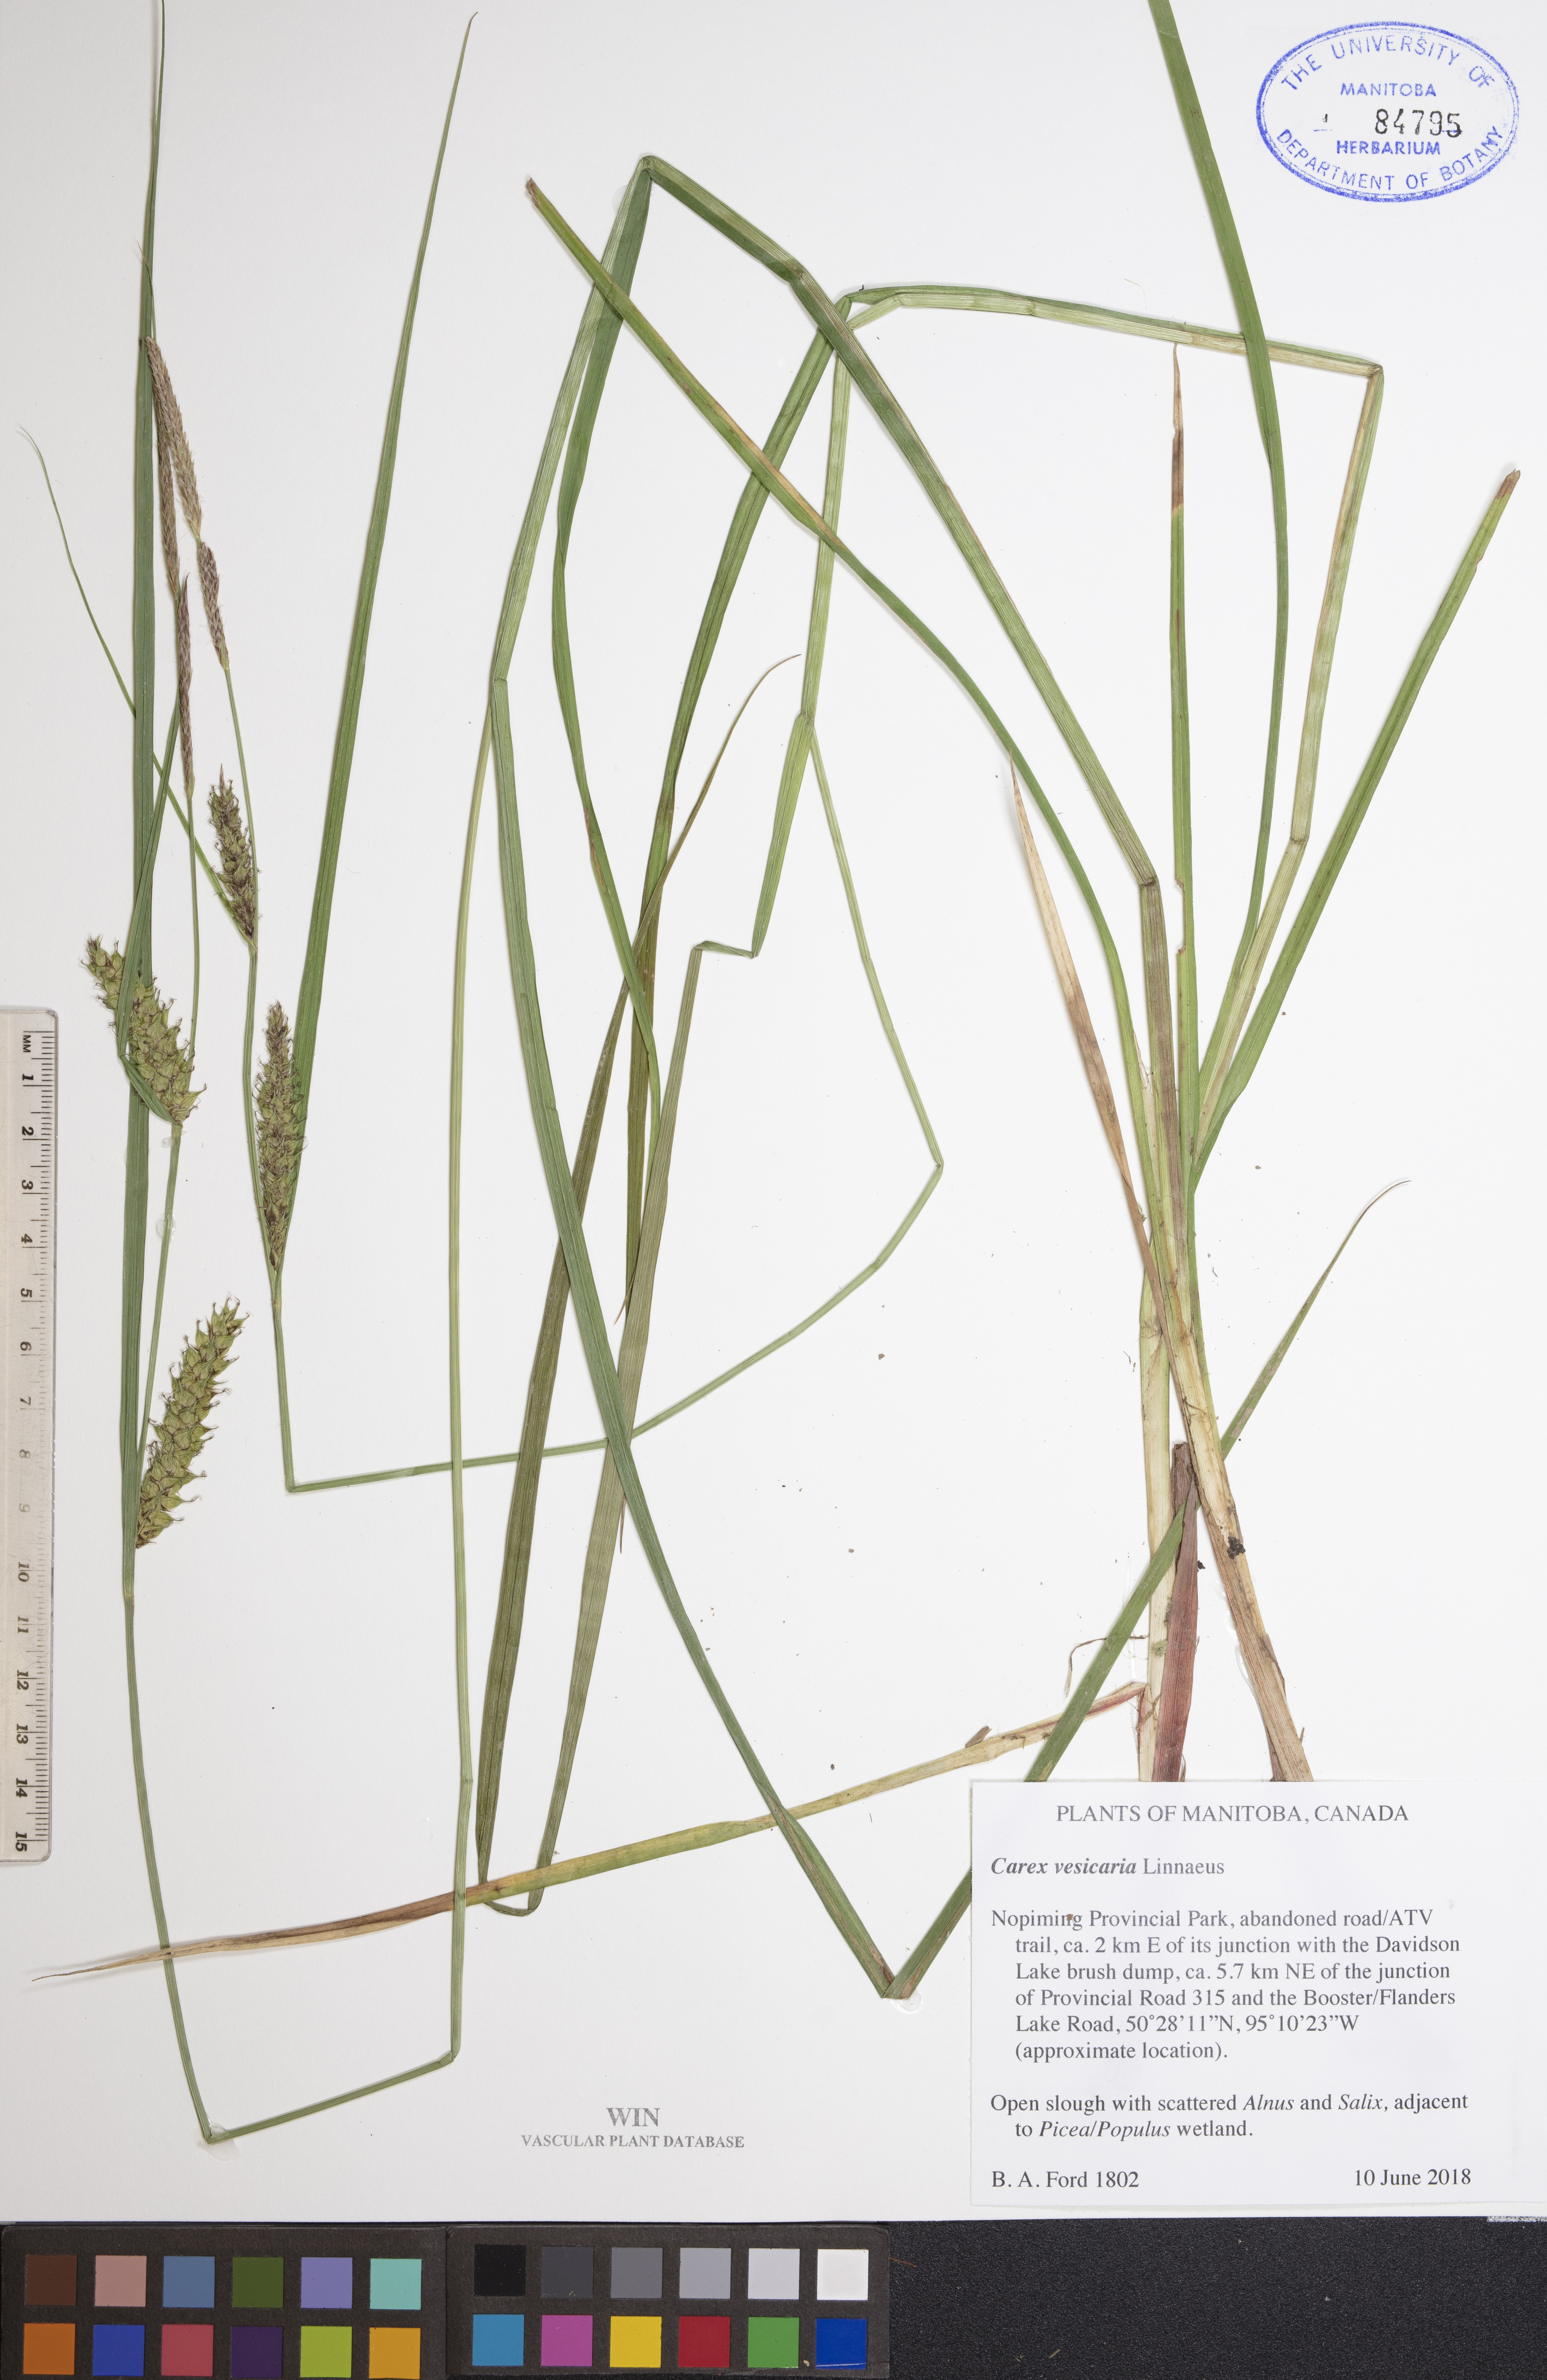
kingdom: Plantae
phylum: Tracheophyta
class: Liliopsida
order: Poales
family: Cyperaceae
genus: Carex
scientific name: Carex vesicaria
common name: Bladder-sedge
